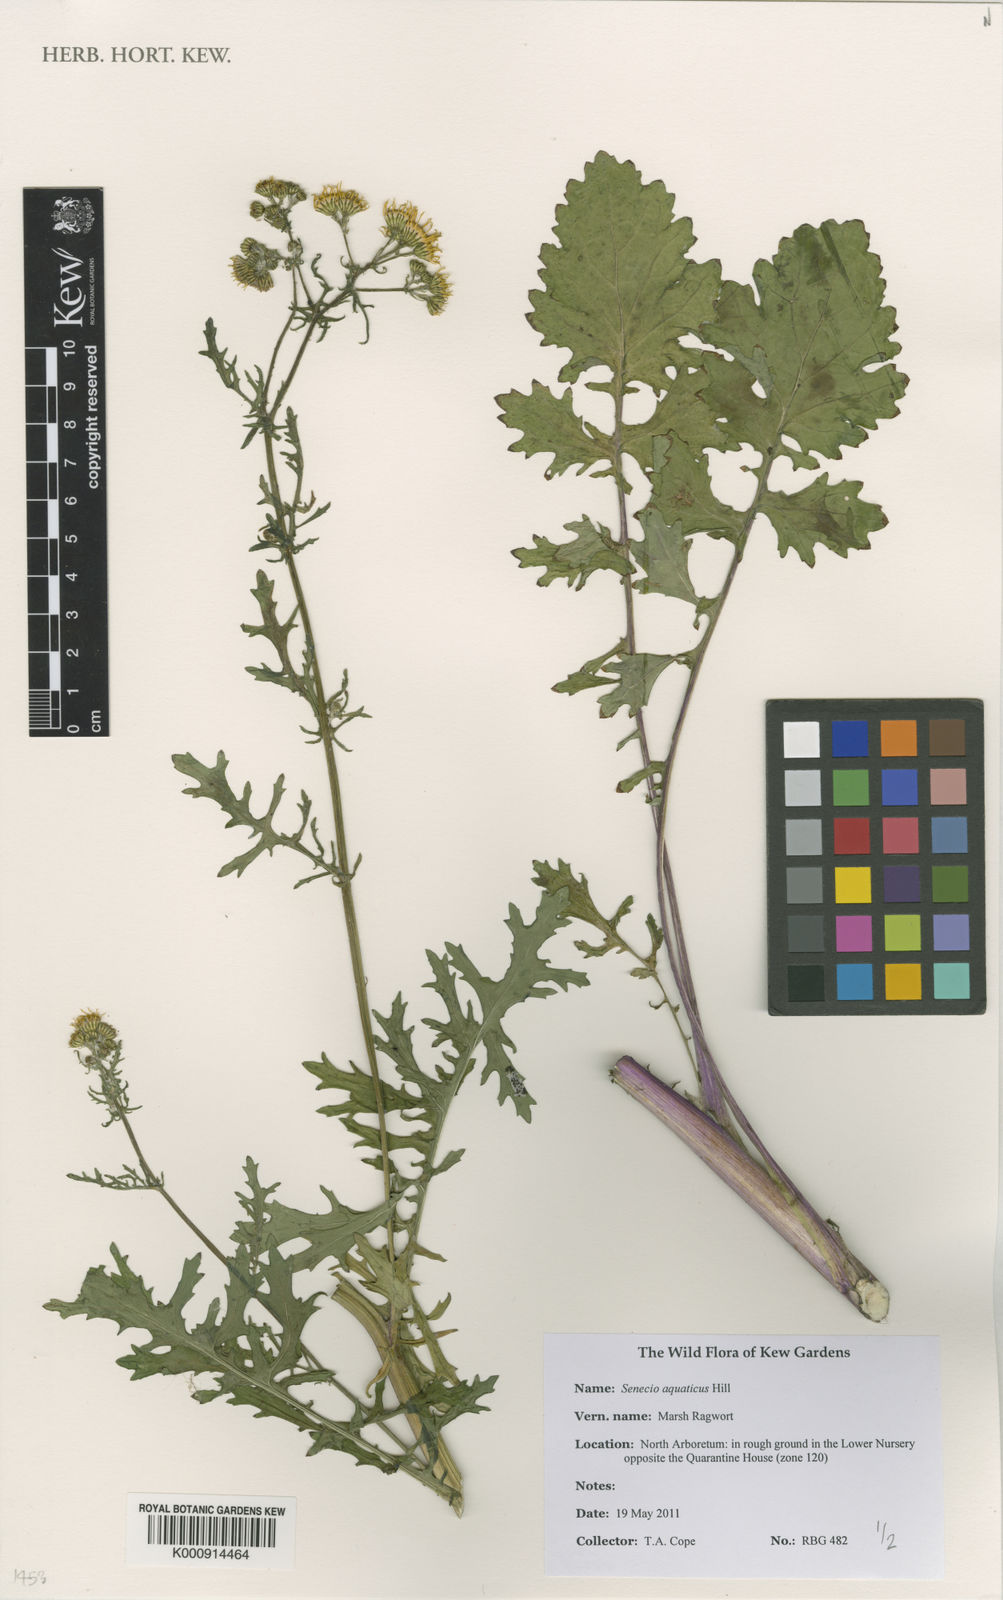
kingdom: Plantae
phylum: Tracheophyta
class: Magnoliopsida
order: Asterales
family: Asteraceae
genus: Jacobaea
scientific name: Jacobaea aquatica
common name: Water ragwort
